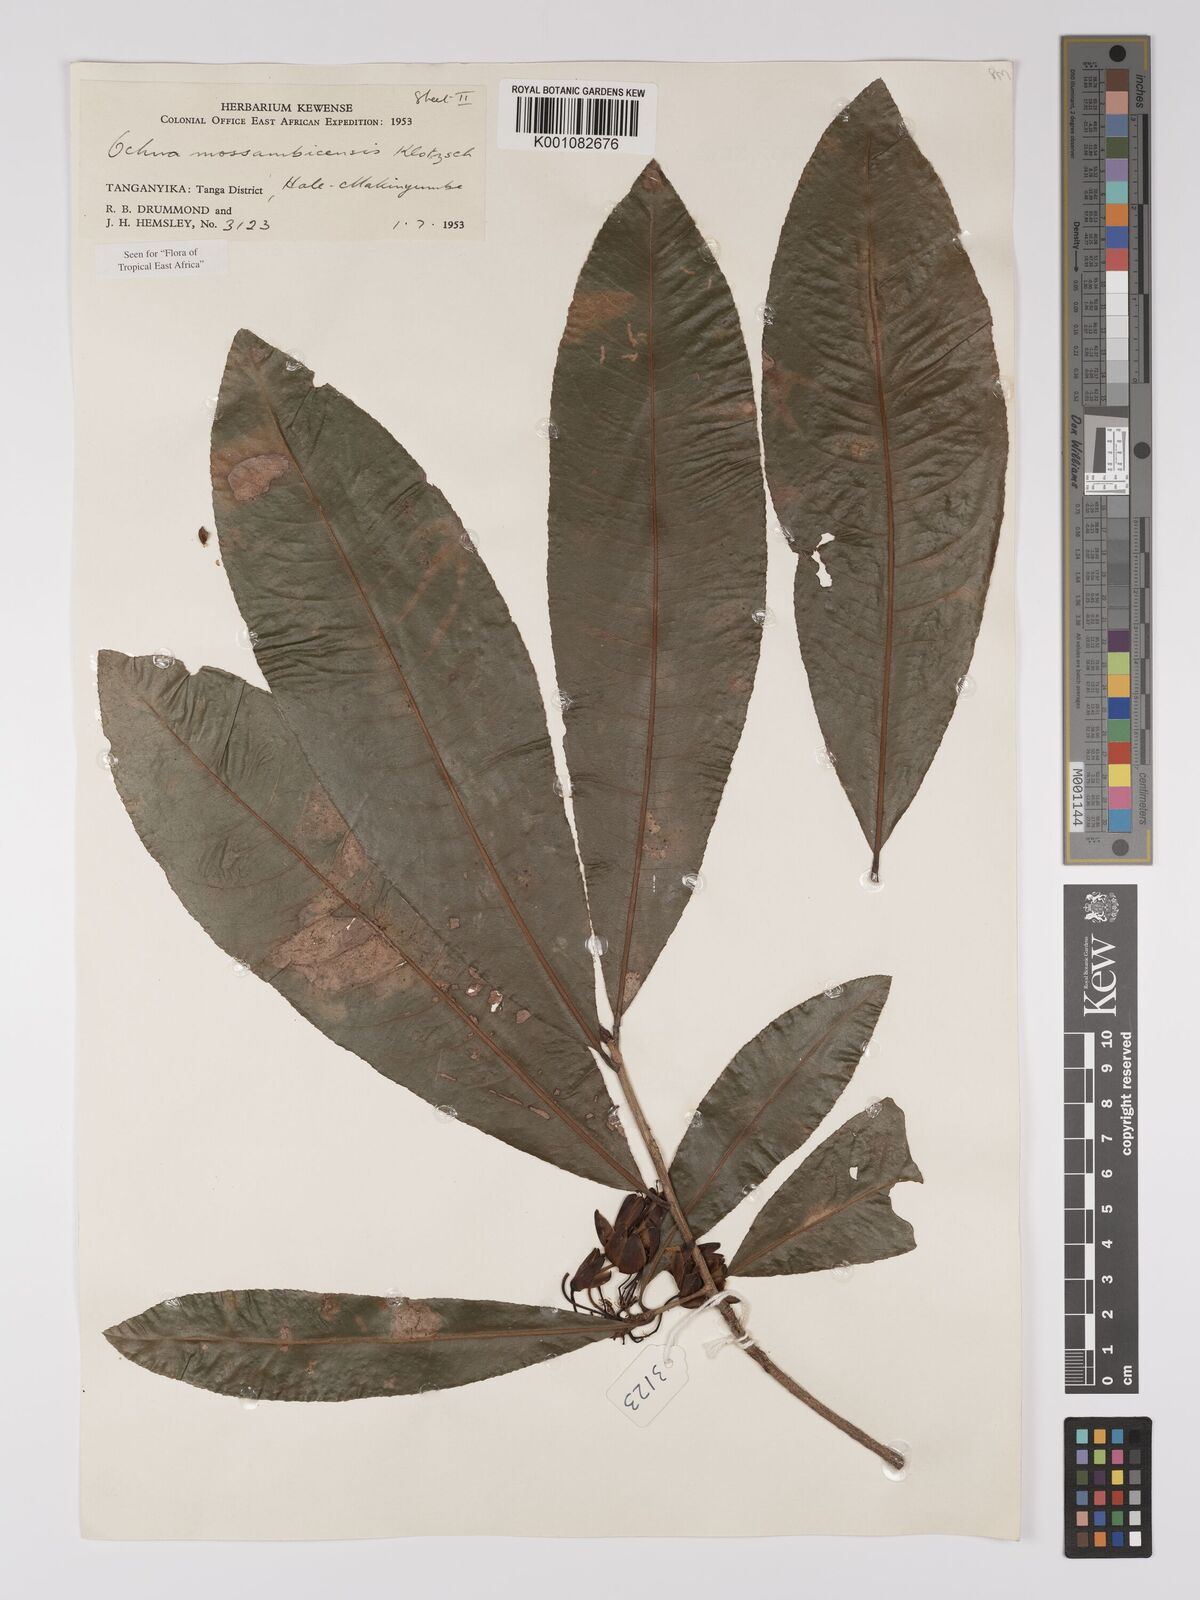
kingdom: Plantae
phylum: Tracheophyta
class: Magnoliopsida
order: Malpighiales
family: Ochnaceae
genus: Ochna
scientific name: Ochna atropurpurea
